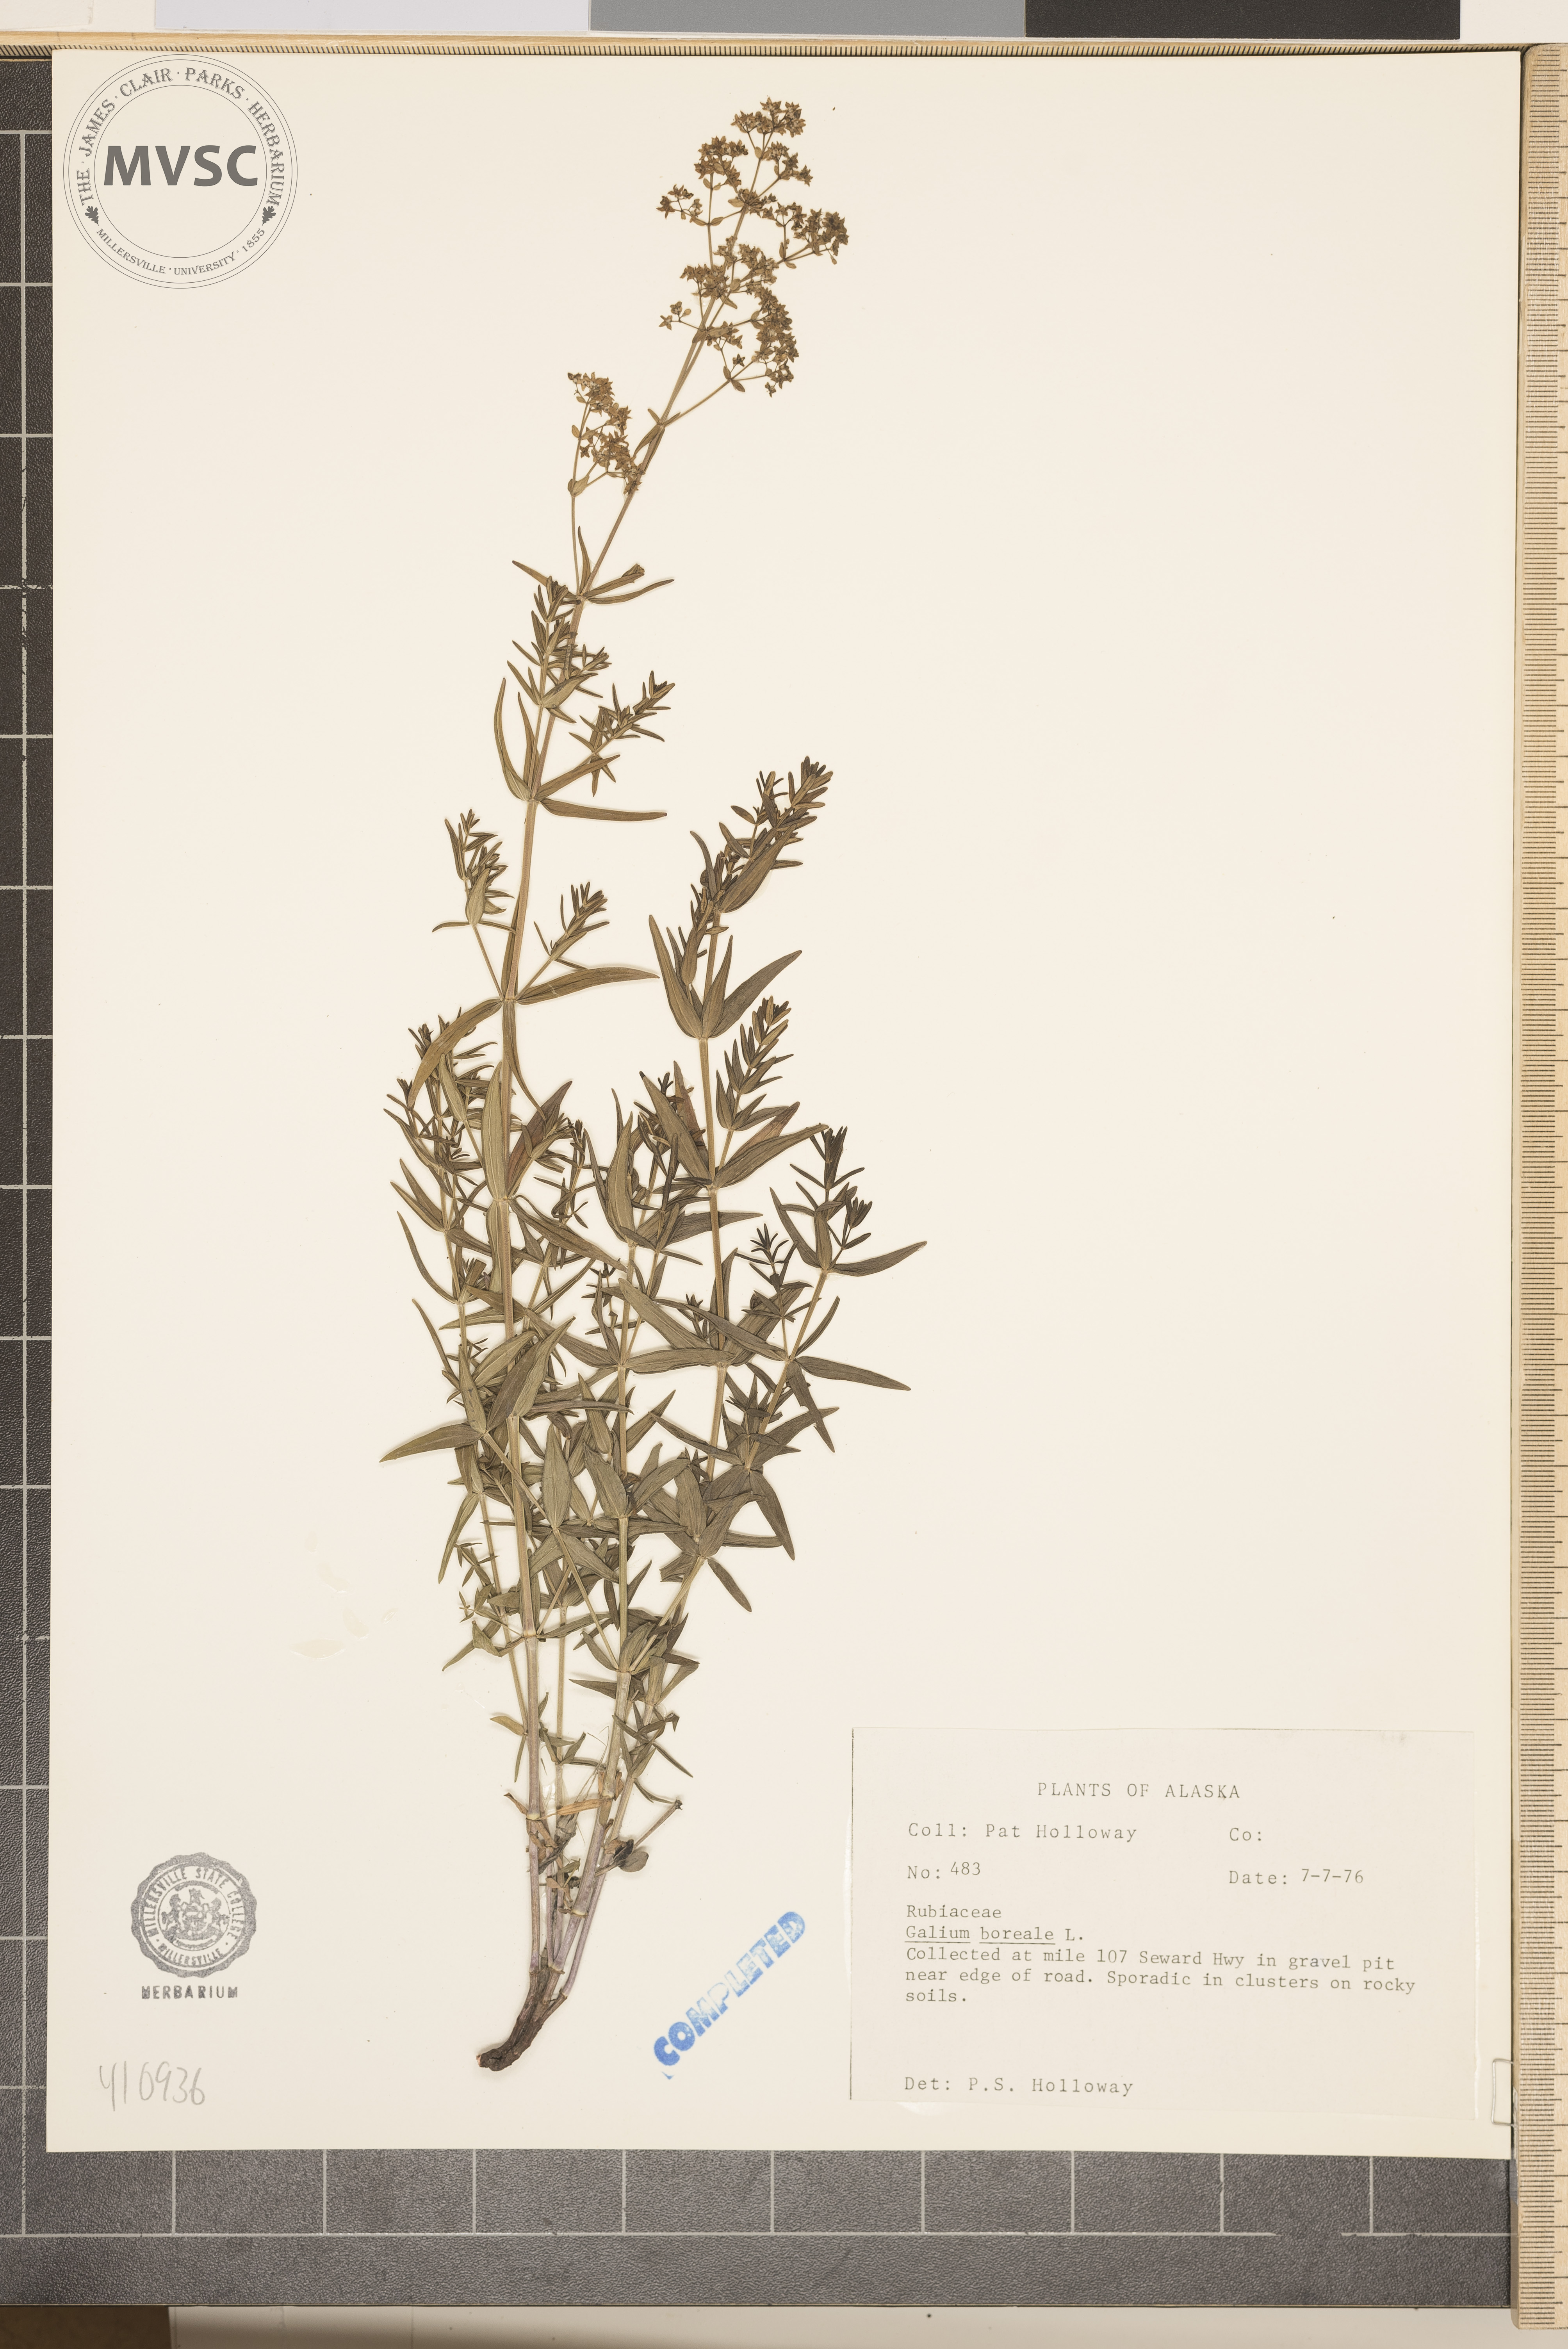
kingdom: Plantae
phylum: Tracheophyta
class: Magnoliopsida
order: Gentianales
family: Rubiaceae
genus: Galium
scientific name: Galium boreale
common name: Northern bedstraw
